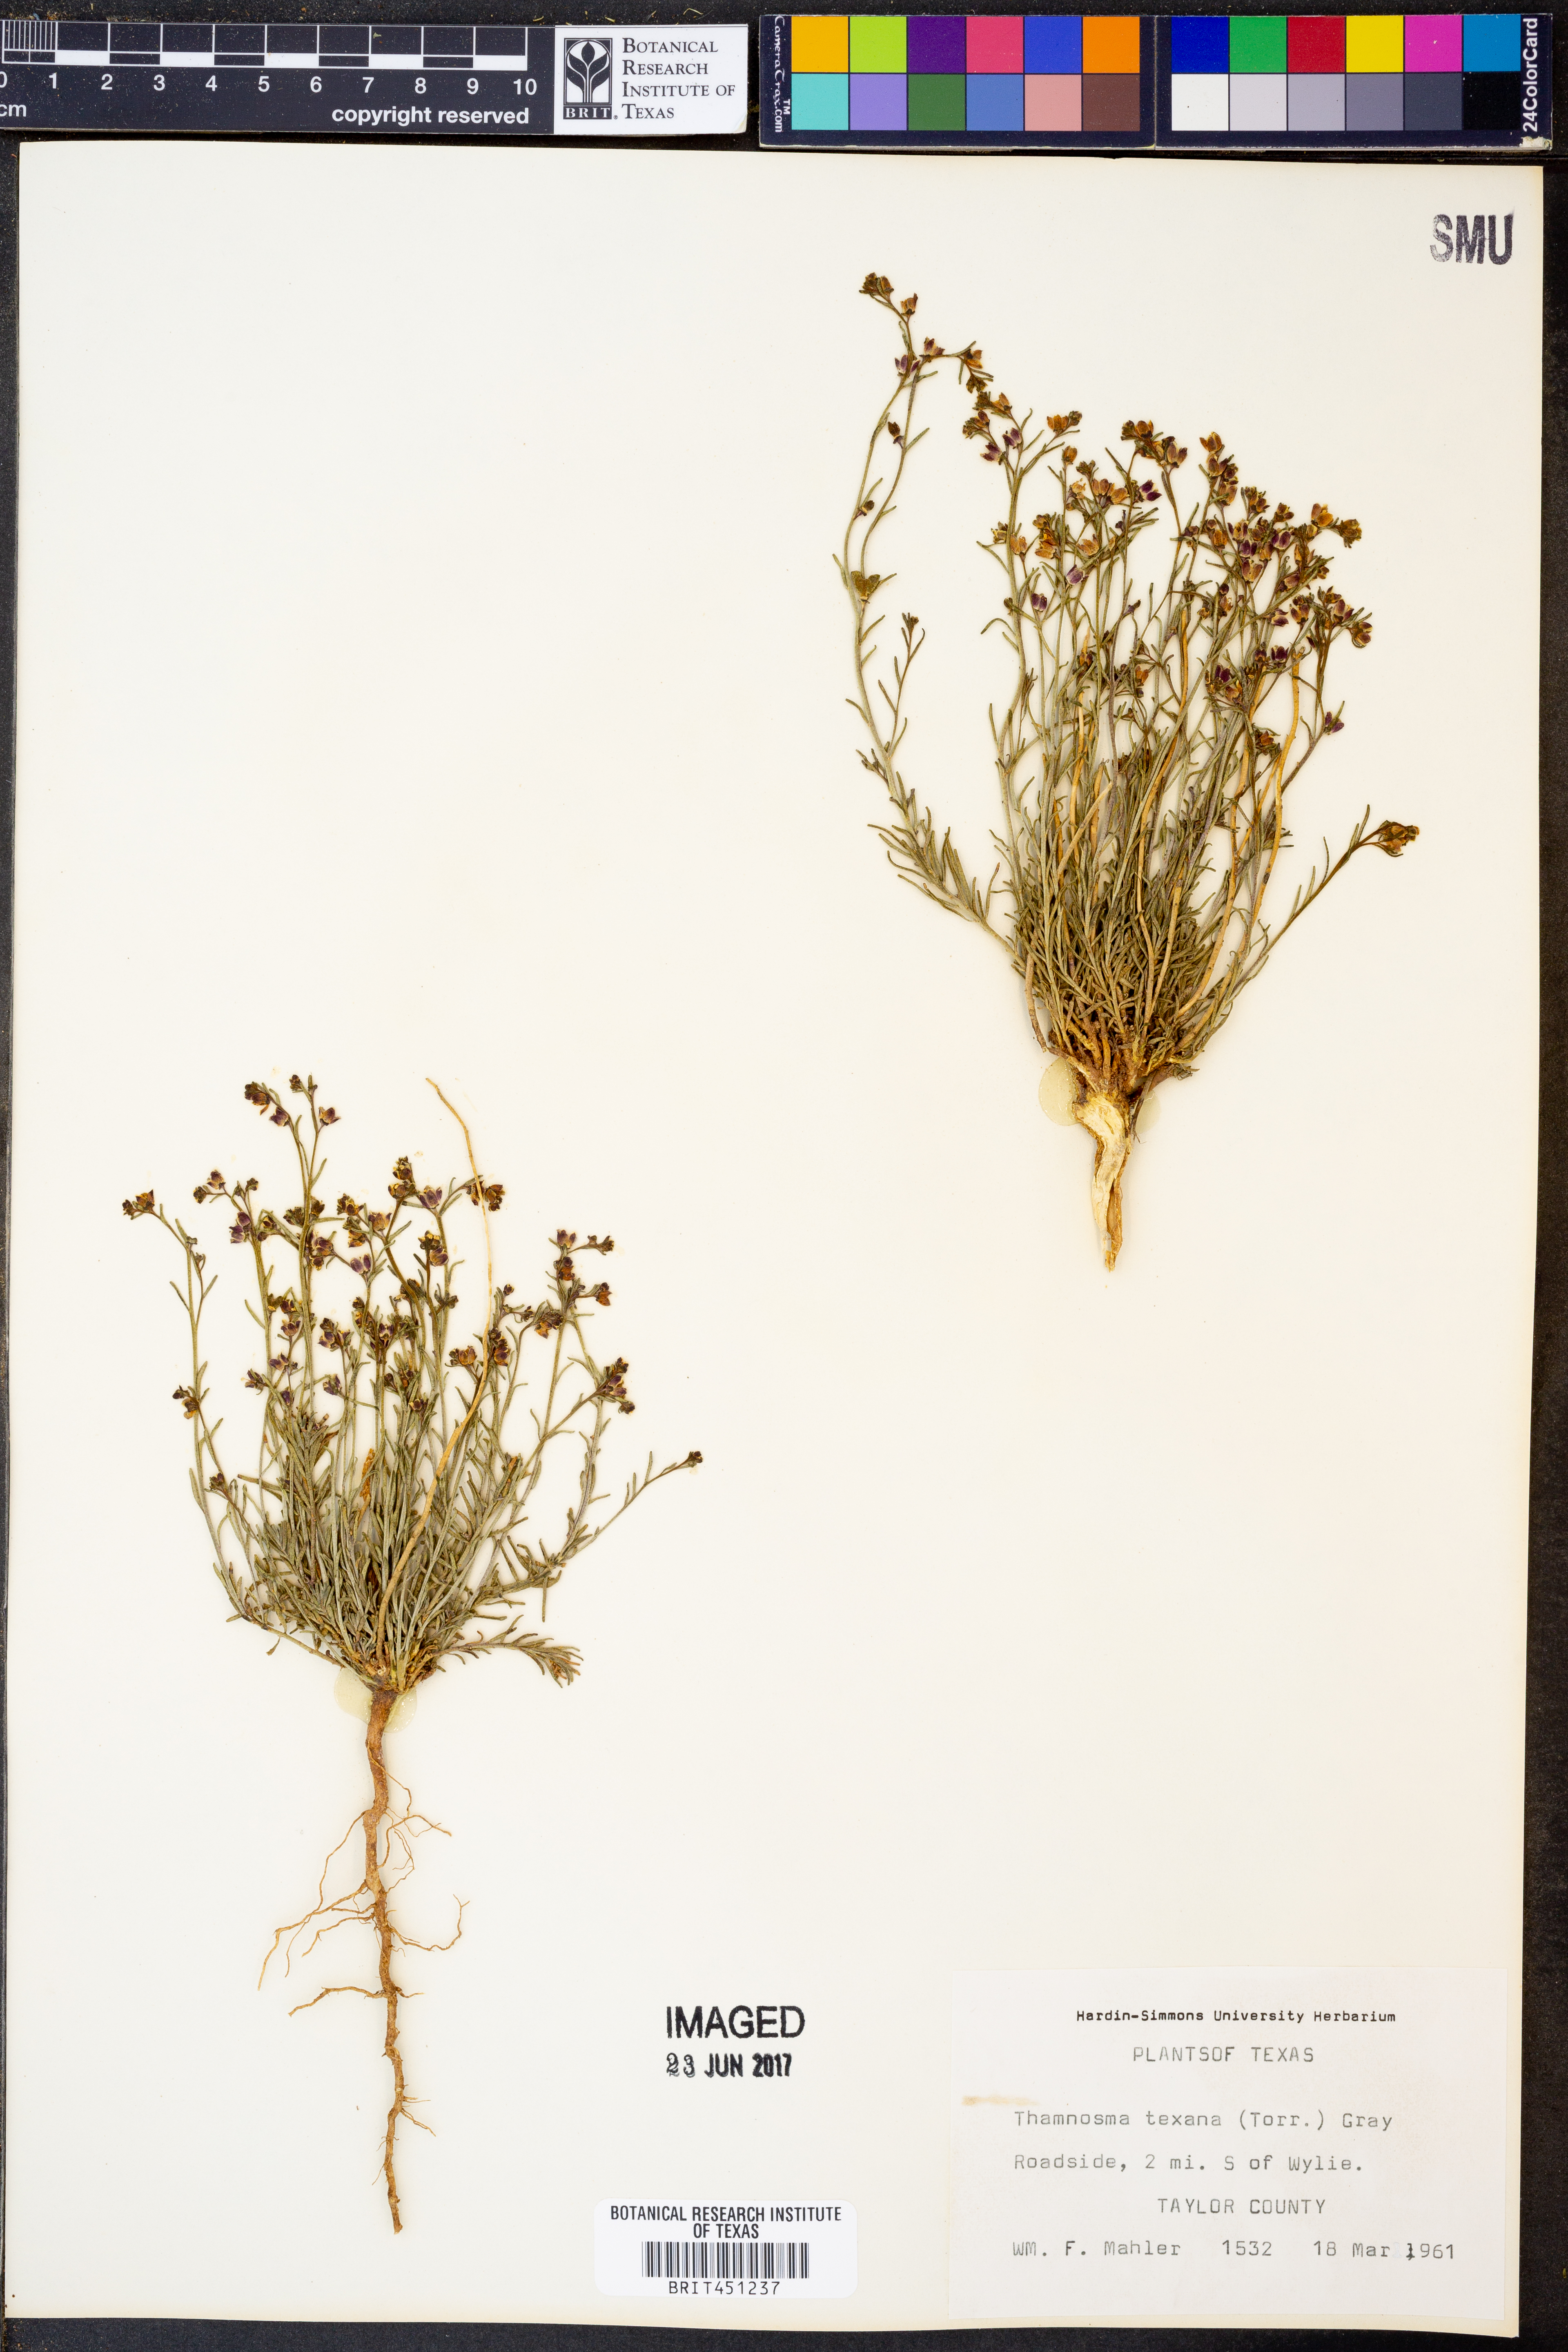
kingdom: Plantae
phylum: Tracheophyta
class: Magnoliopsida
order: Sapindales
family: Rutaceae
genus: Thamnosma
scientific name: Thamnosma texana
